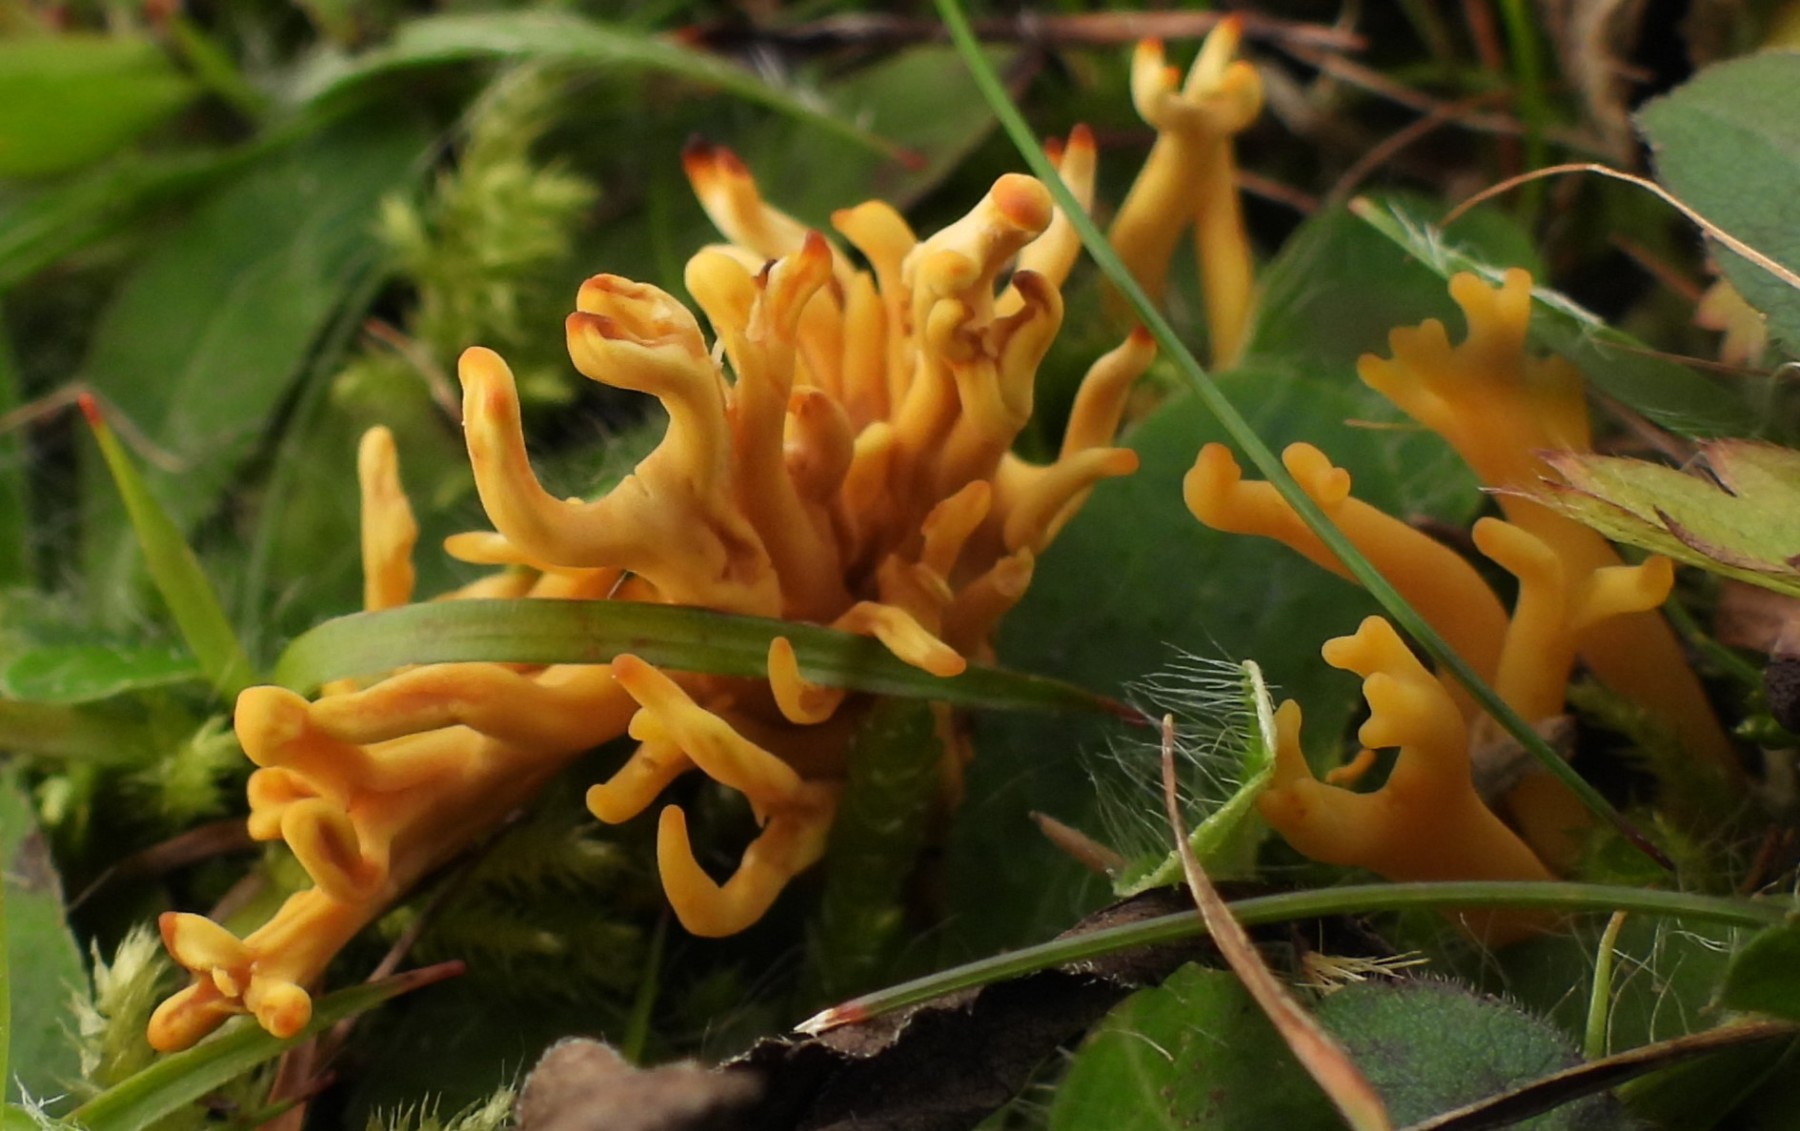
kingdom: Fungi
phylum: Basidiomycota
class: Agaricomycetes
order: Agaricales
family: Clavariaceae
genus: Clavulinopsis
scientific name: Clavulinopsis corniculata
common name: eng-køllesvamp
